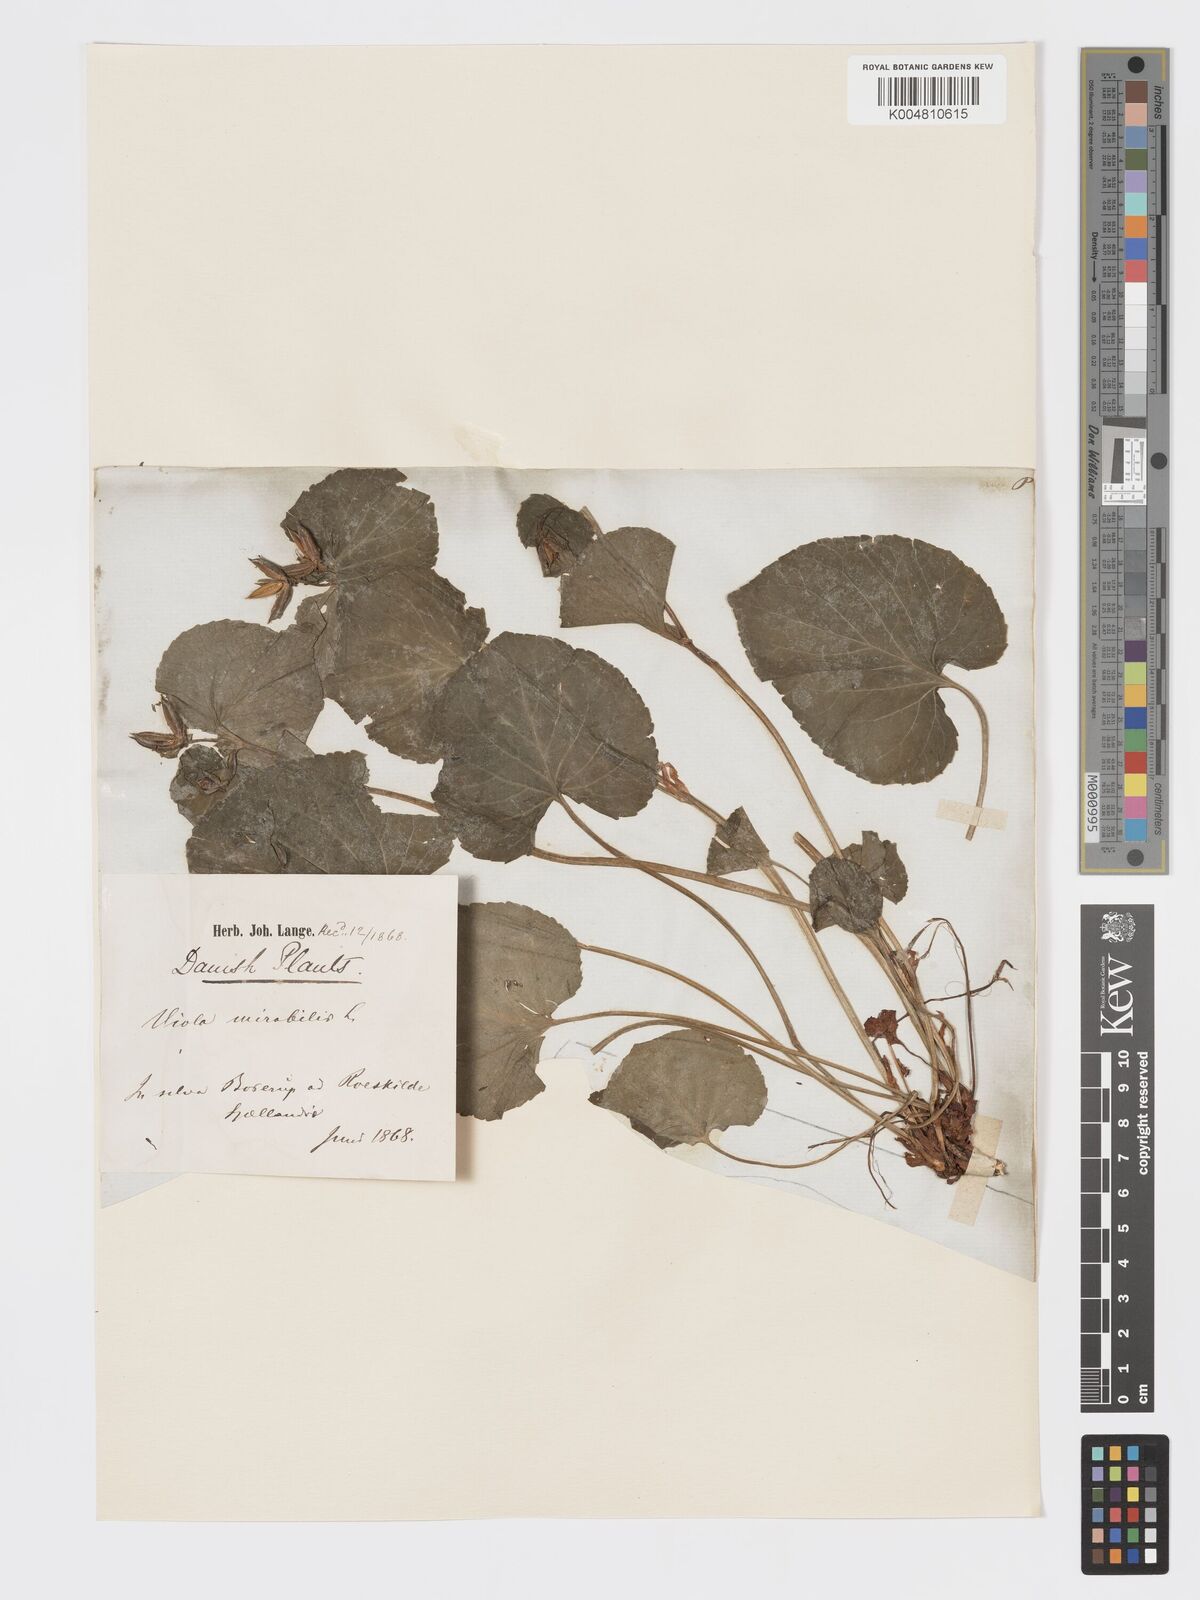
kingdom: Plantae
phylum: Tracheophyta
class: Magnoliopsida
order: Malpighiales
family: Violaceae
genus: Viola
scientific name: Viola mirabilis
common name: Wonder violet
